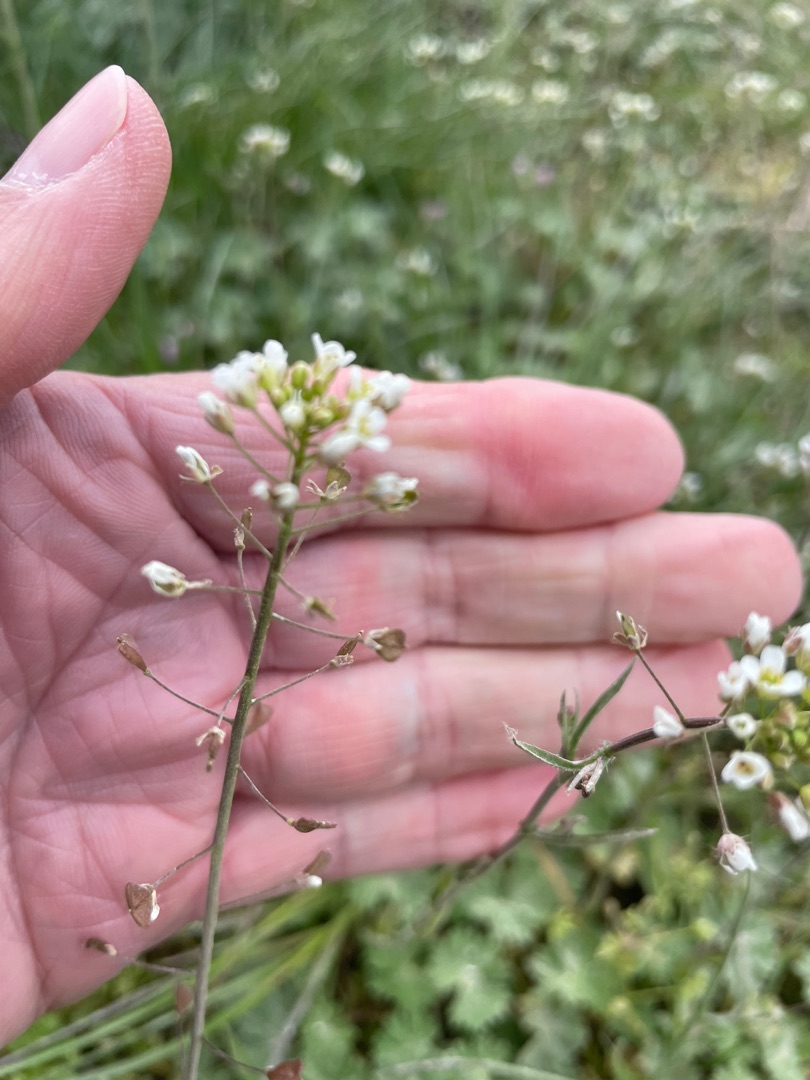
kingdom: Plantae
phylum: Tracheophyta
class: Magnoliopsida
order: Brassicales
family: Brassicaceae
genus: Capsella
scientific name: Capsella bursa-pastoris
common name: Hyrdetaske
